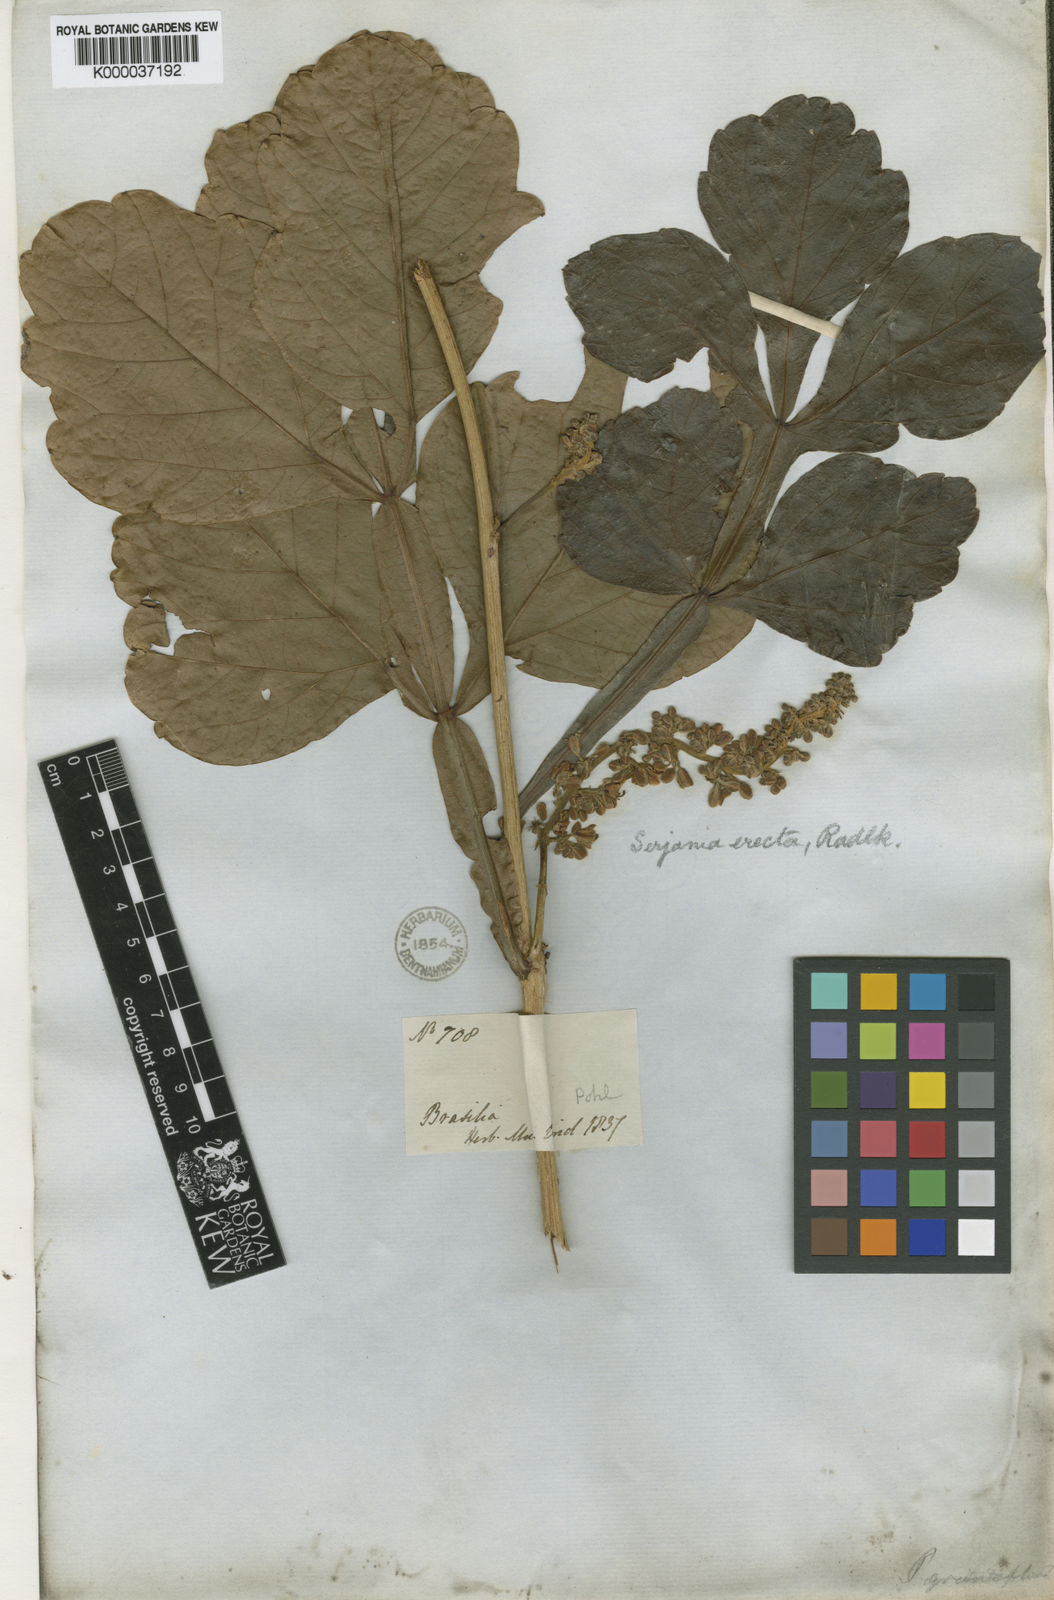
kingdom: Plantae
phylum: Tracheophyta
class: Magnoliopsida
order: Sapindales
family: Sapindaceae
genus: Serjania
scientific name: Serjania erecta
